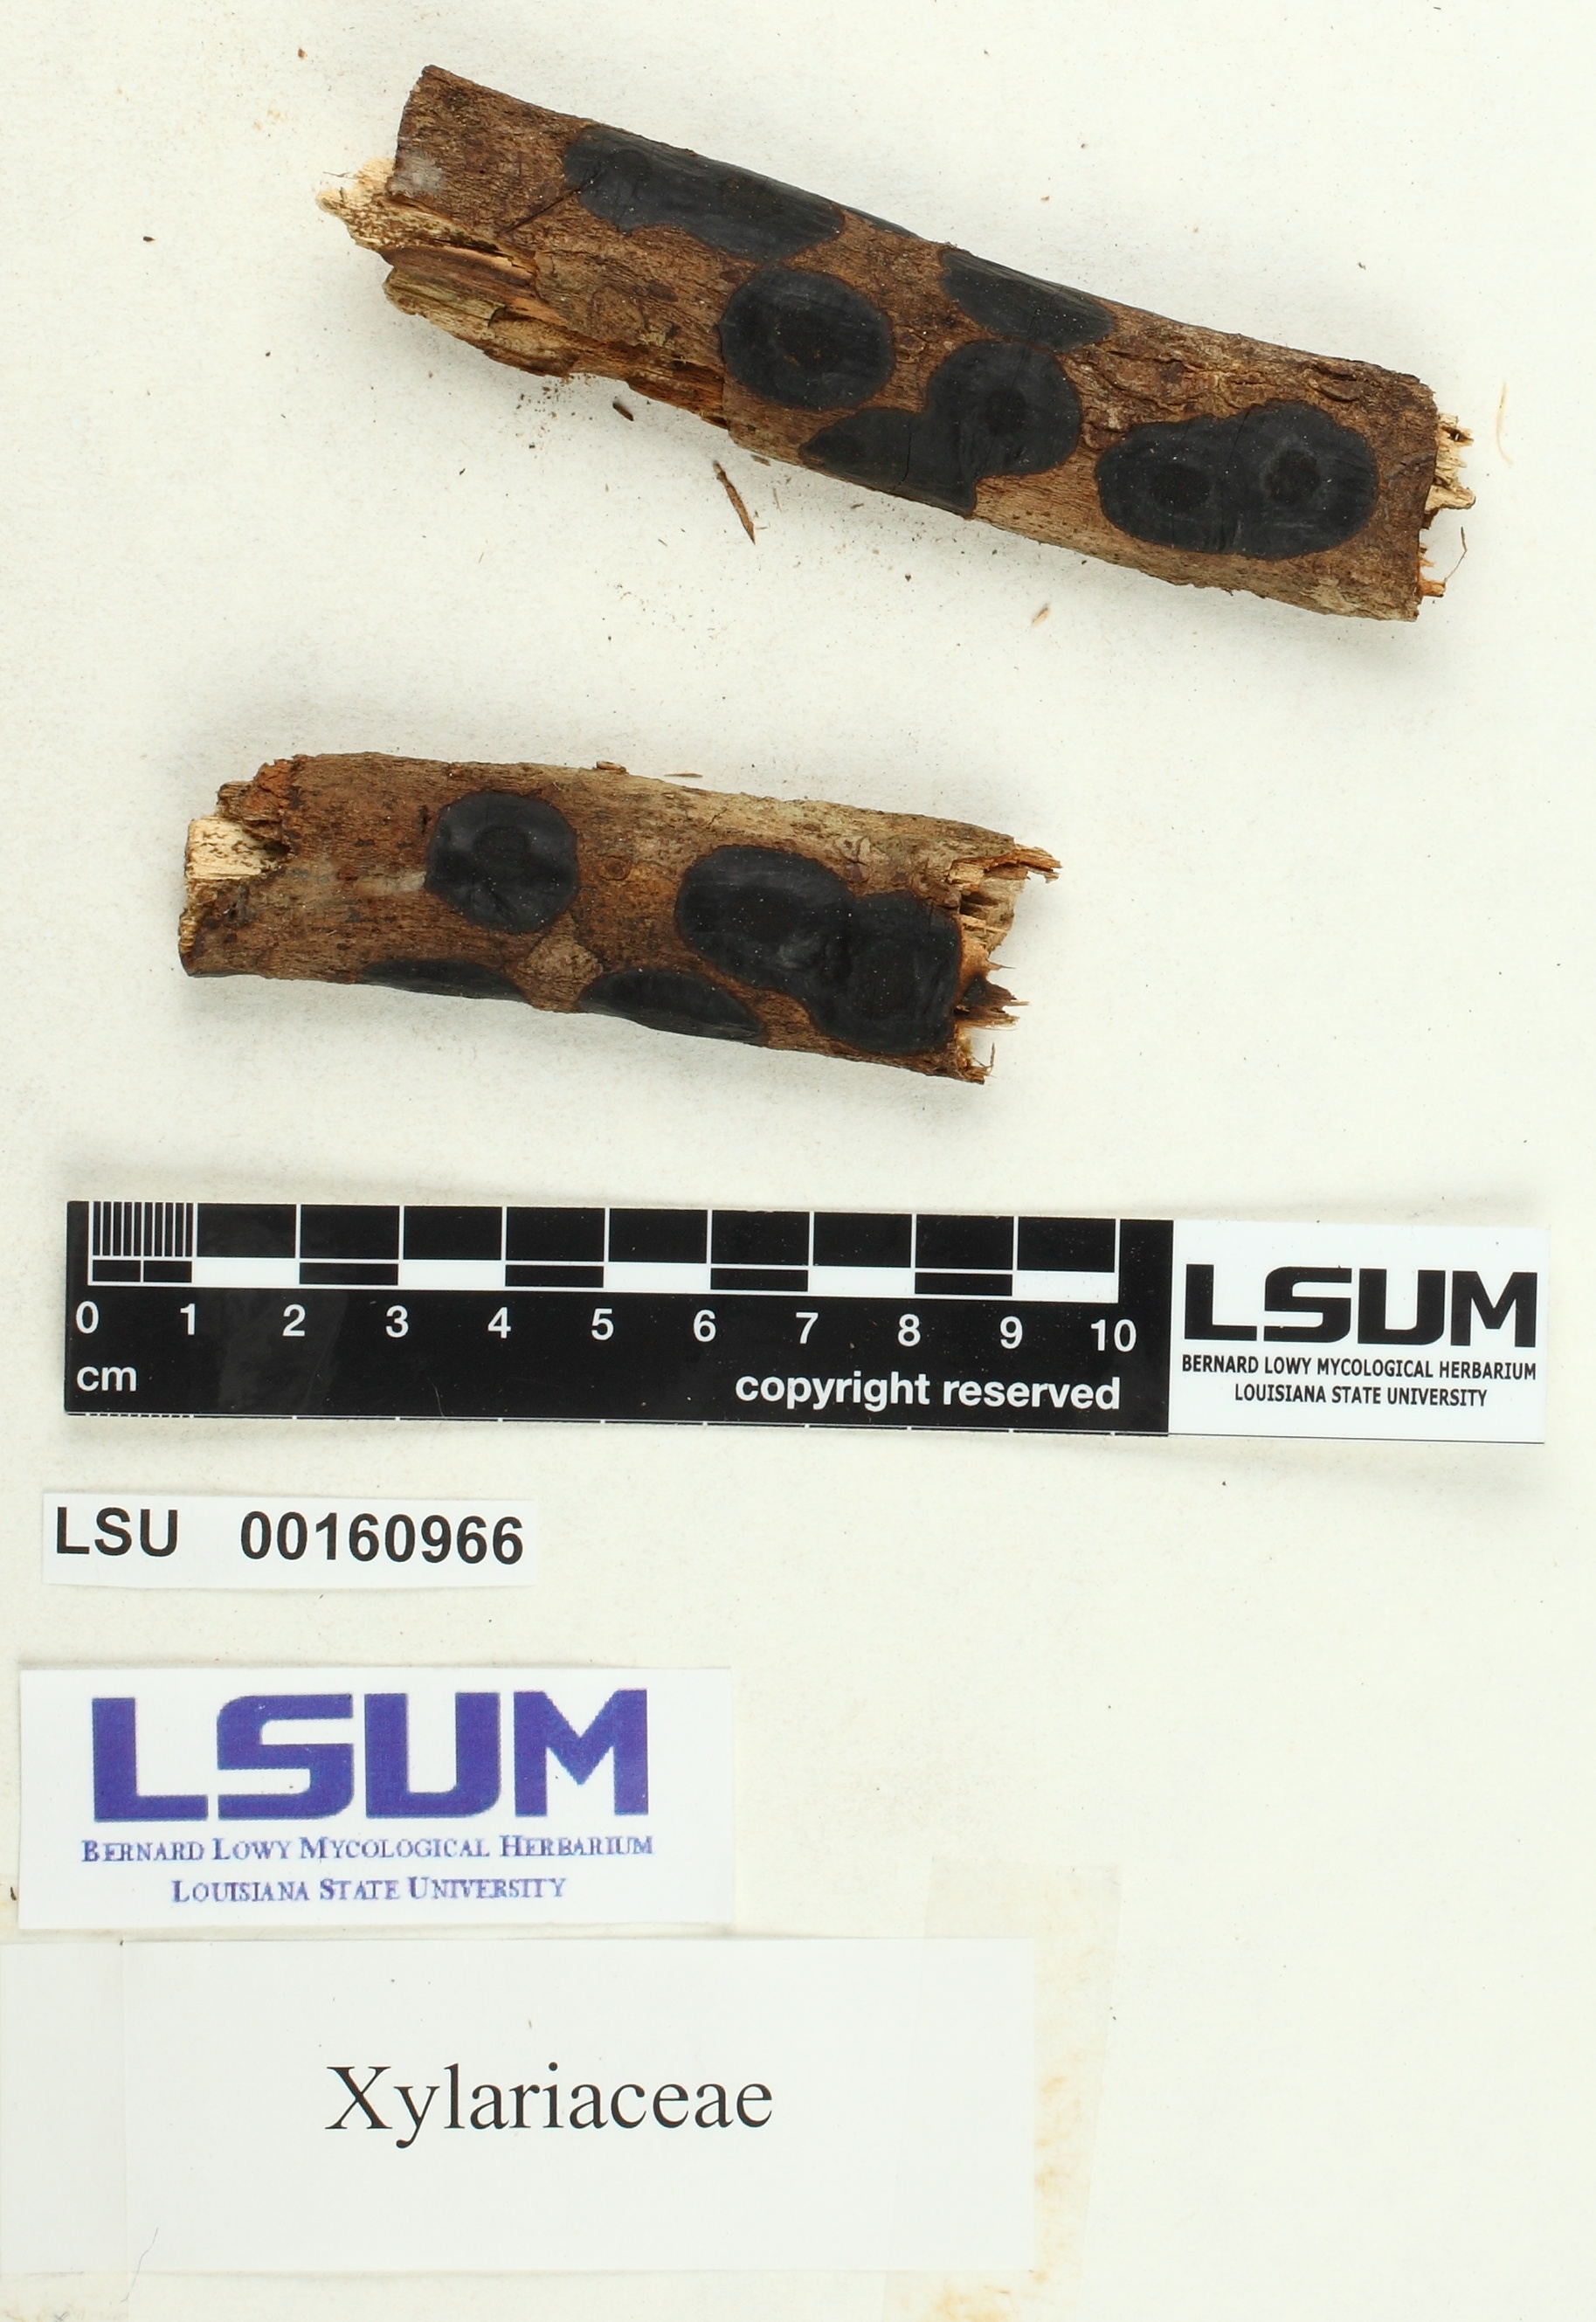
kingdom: Fungi
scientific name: Fungi
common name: Fungi
